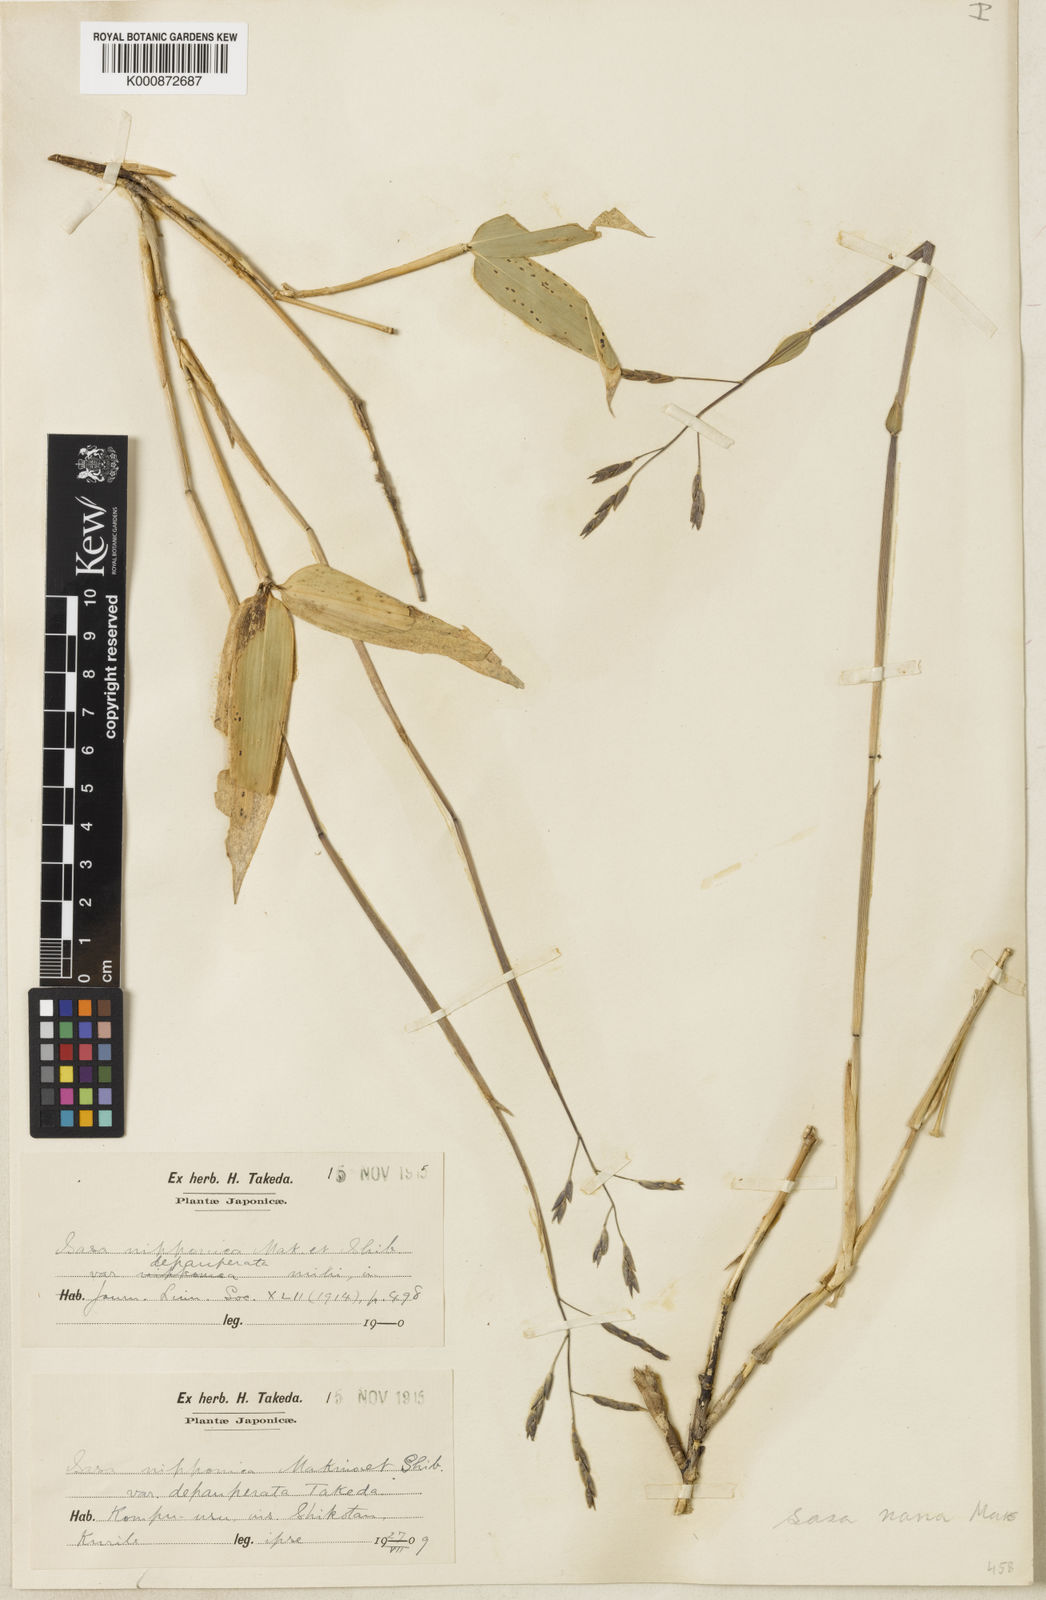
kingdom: Plantae
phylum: Tracheophyta
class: Liliopsida
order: Poales
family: Poaceae
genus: Sasa
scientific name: Sasa nipponica
